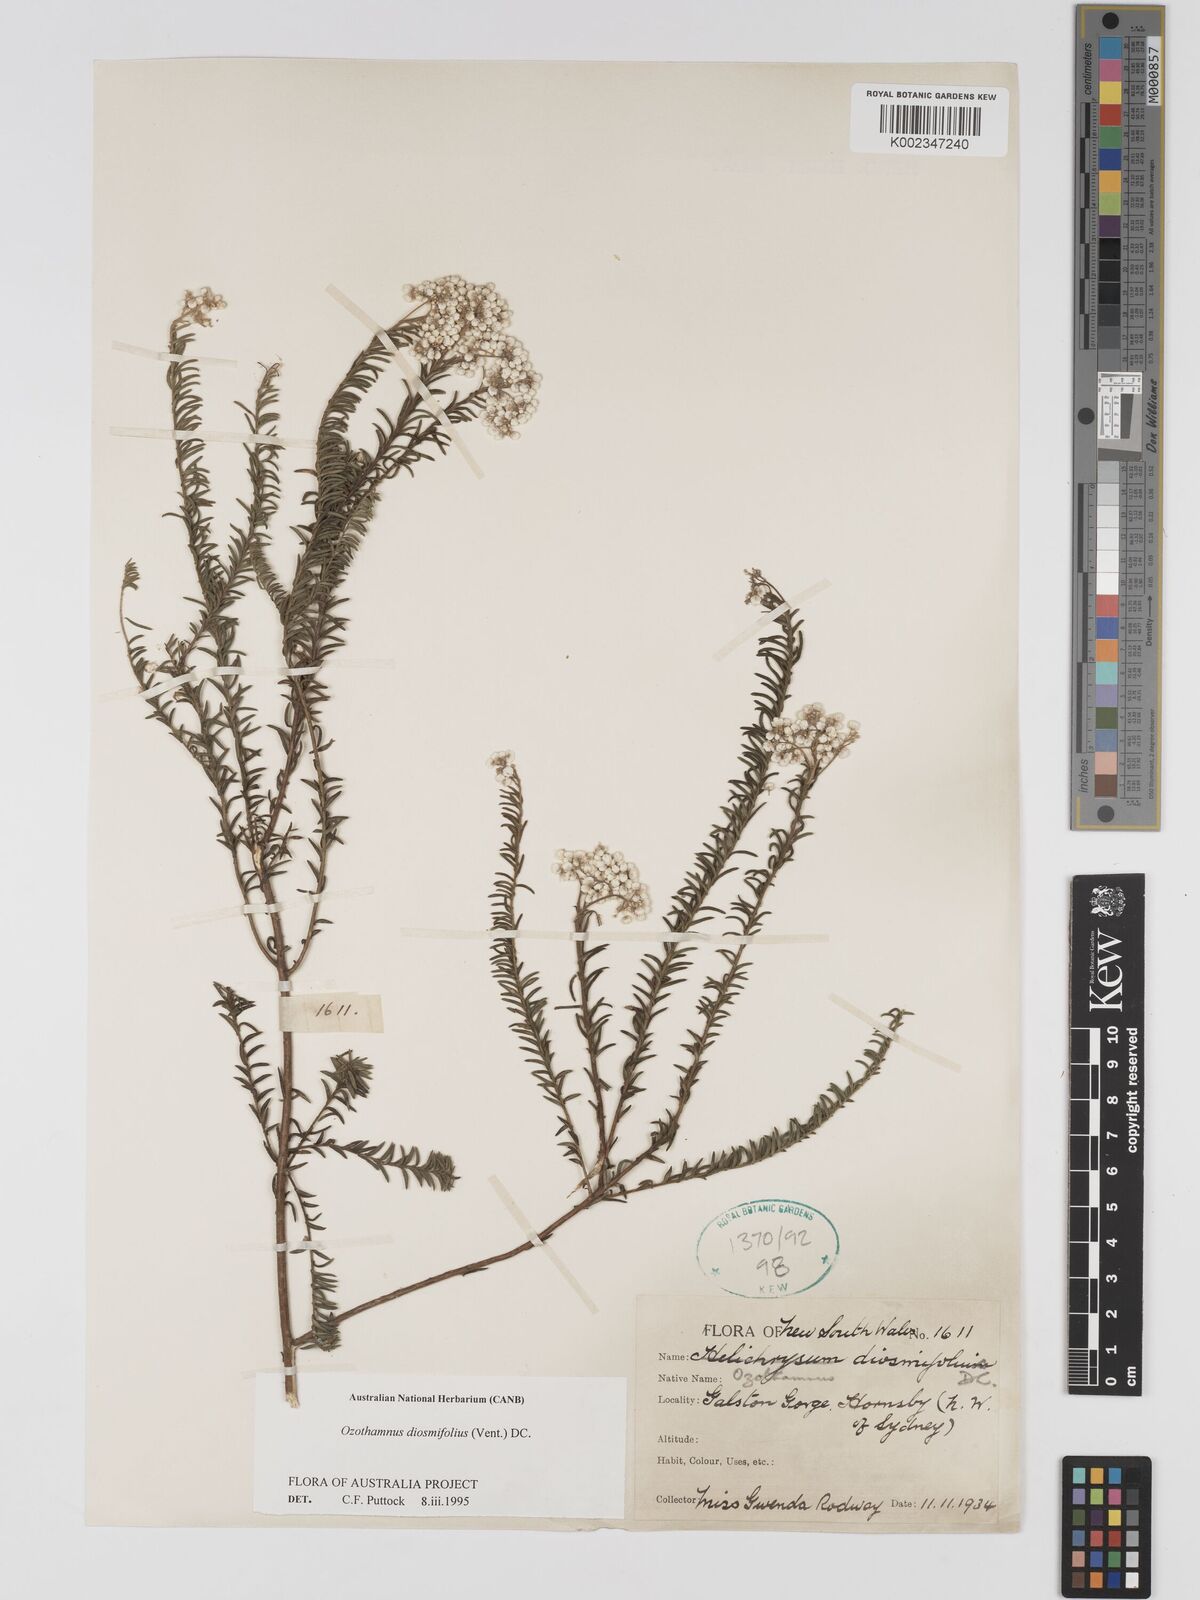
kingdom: Plantae
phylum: Tracheophyta
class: Magnoliopsida
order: Asterales
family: Asteraceae
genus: Ozothamnus
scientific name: Ozothamnus diosmifolius
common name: White-dogwood
